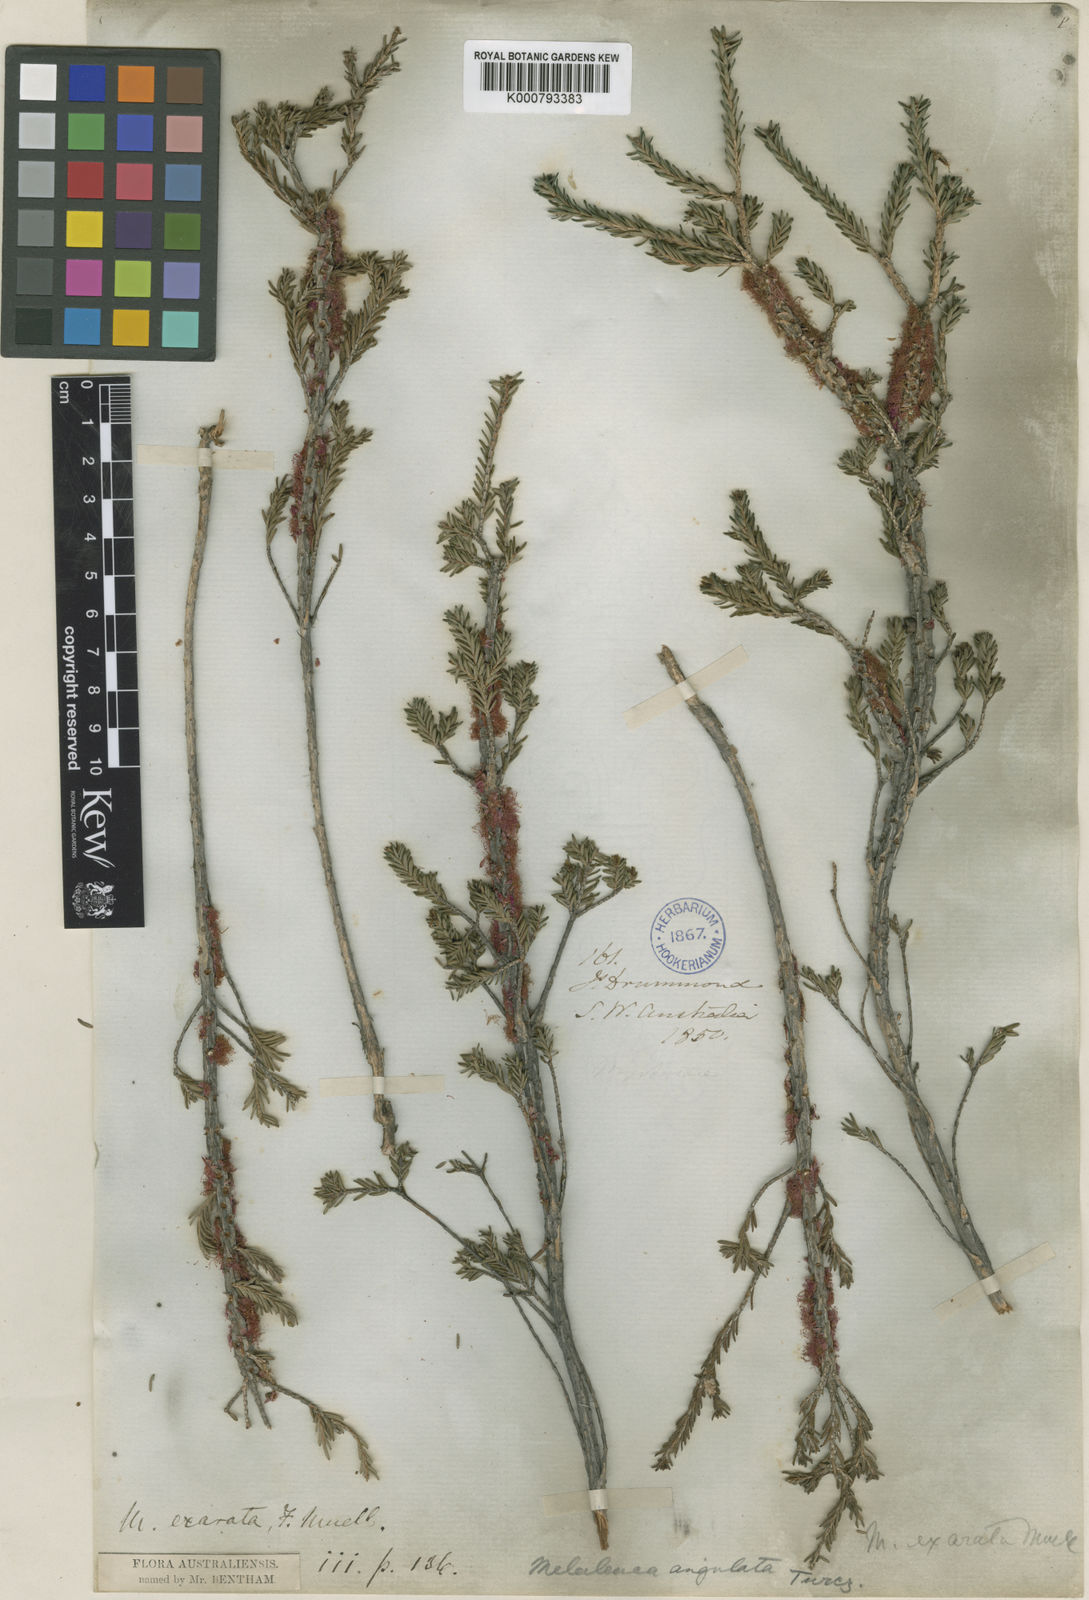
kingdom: Plantae
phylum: Tracheophyta
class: Magnoliopsida
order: Myrtales
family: Myrtaceae
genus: Melaleuca
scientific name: Melaleuca suberosa
